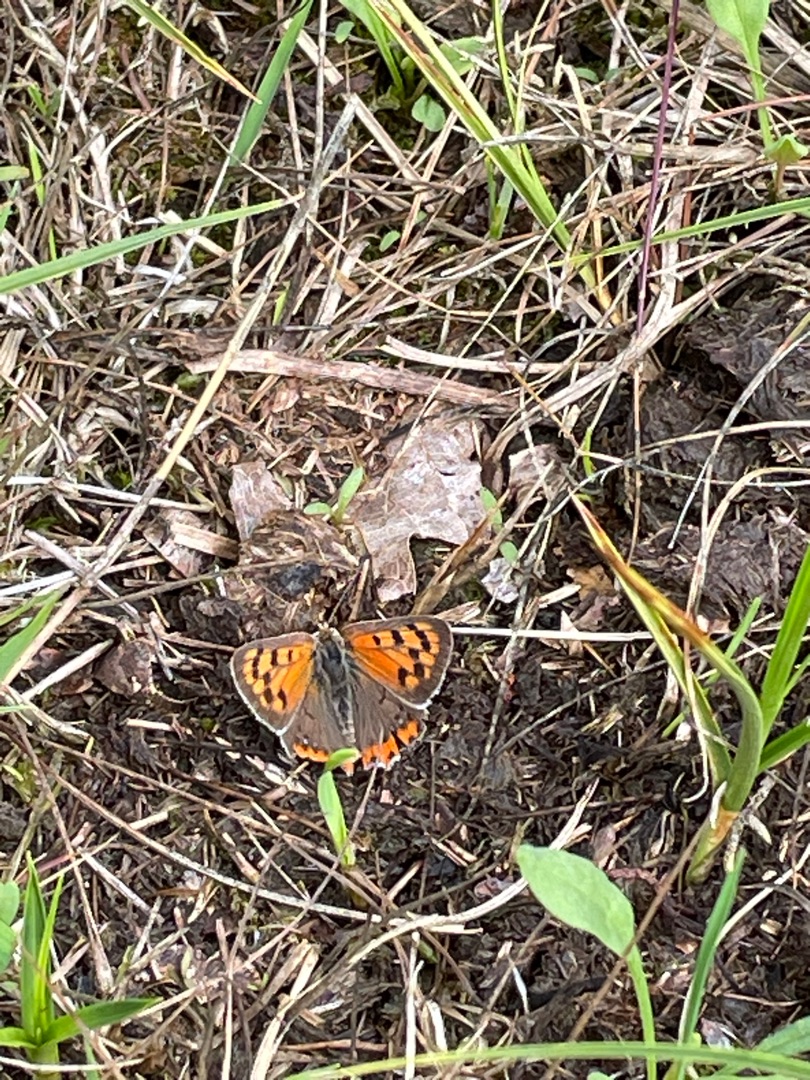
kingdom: Animalia
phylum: Arthropoda
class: Insecta
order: Lepidoptera
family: Lycaenidae
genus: Lycaena
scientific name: Lycaena phlaeas
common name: Lille ildfugl
